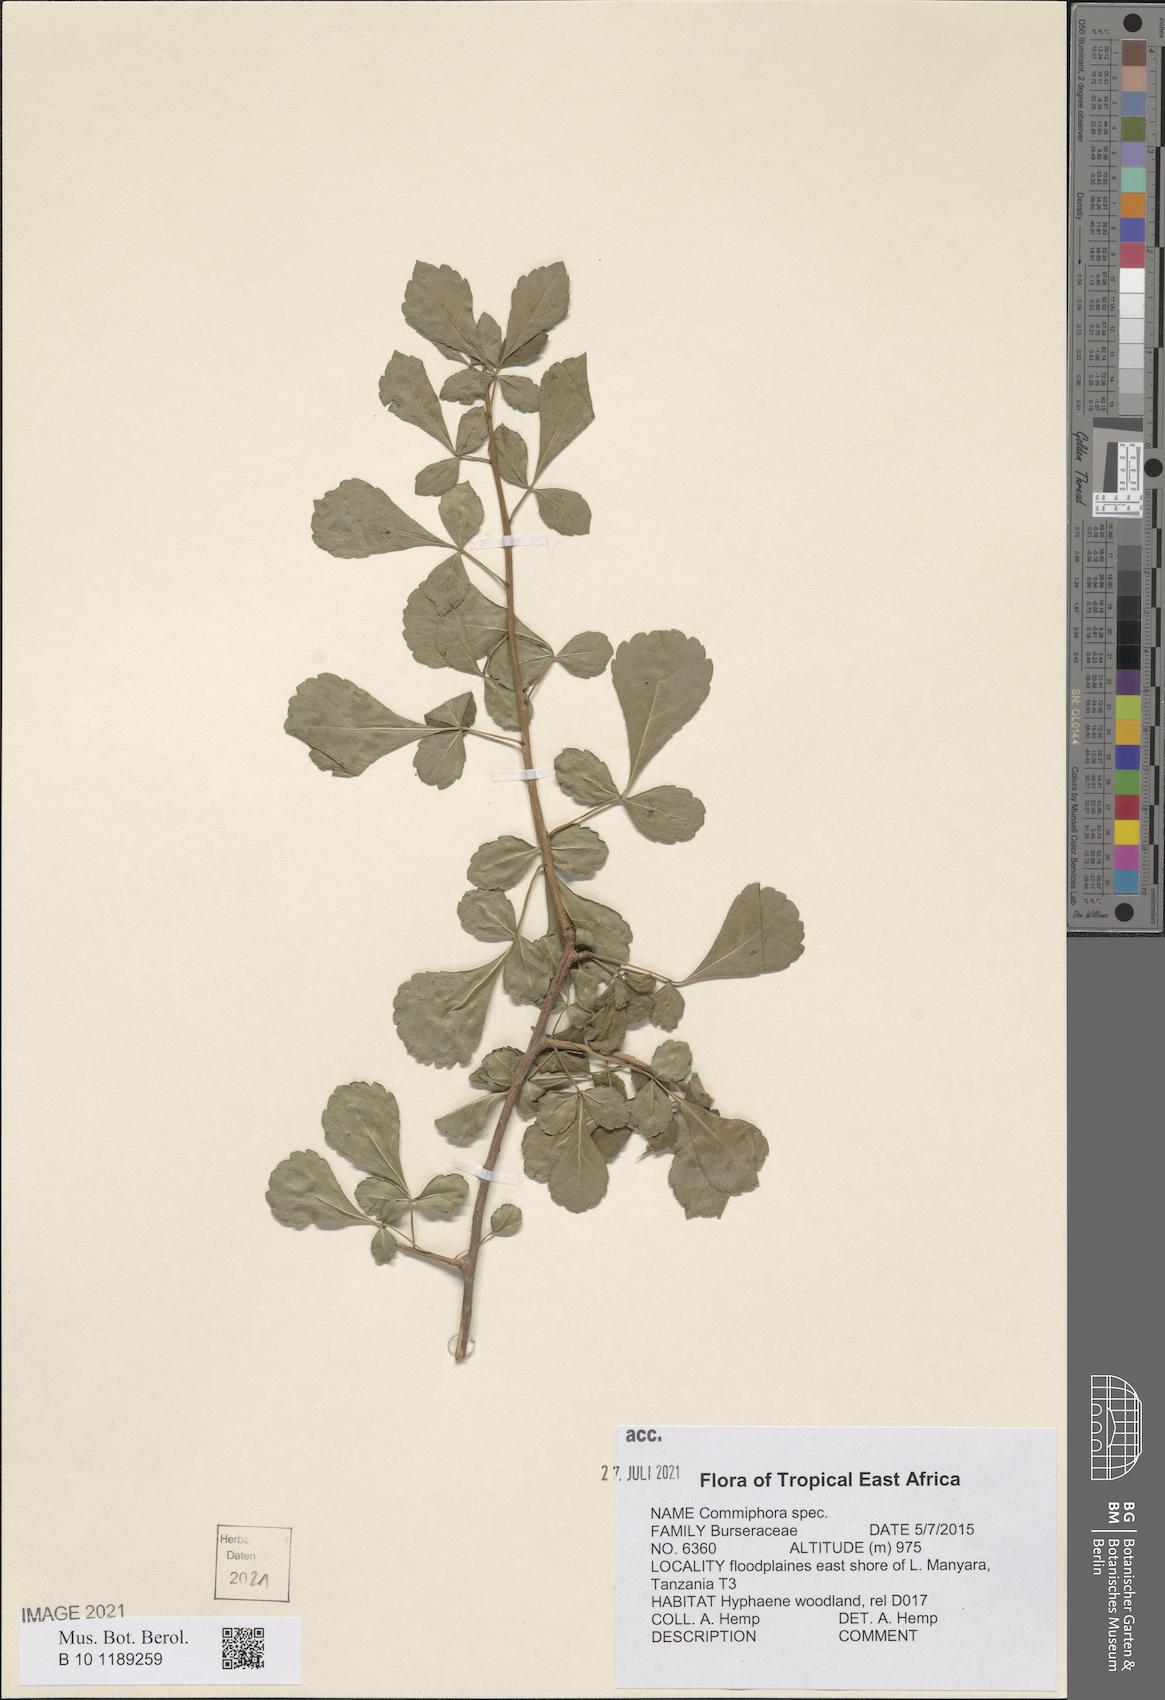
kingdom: Plantae
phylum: Tracheophyta
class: Magnoliopsida
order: Sapindales
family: Burseraceae
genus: Commiphora
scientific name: Commiphora
